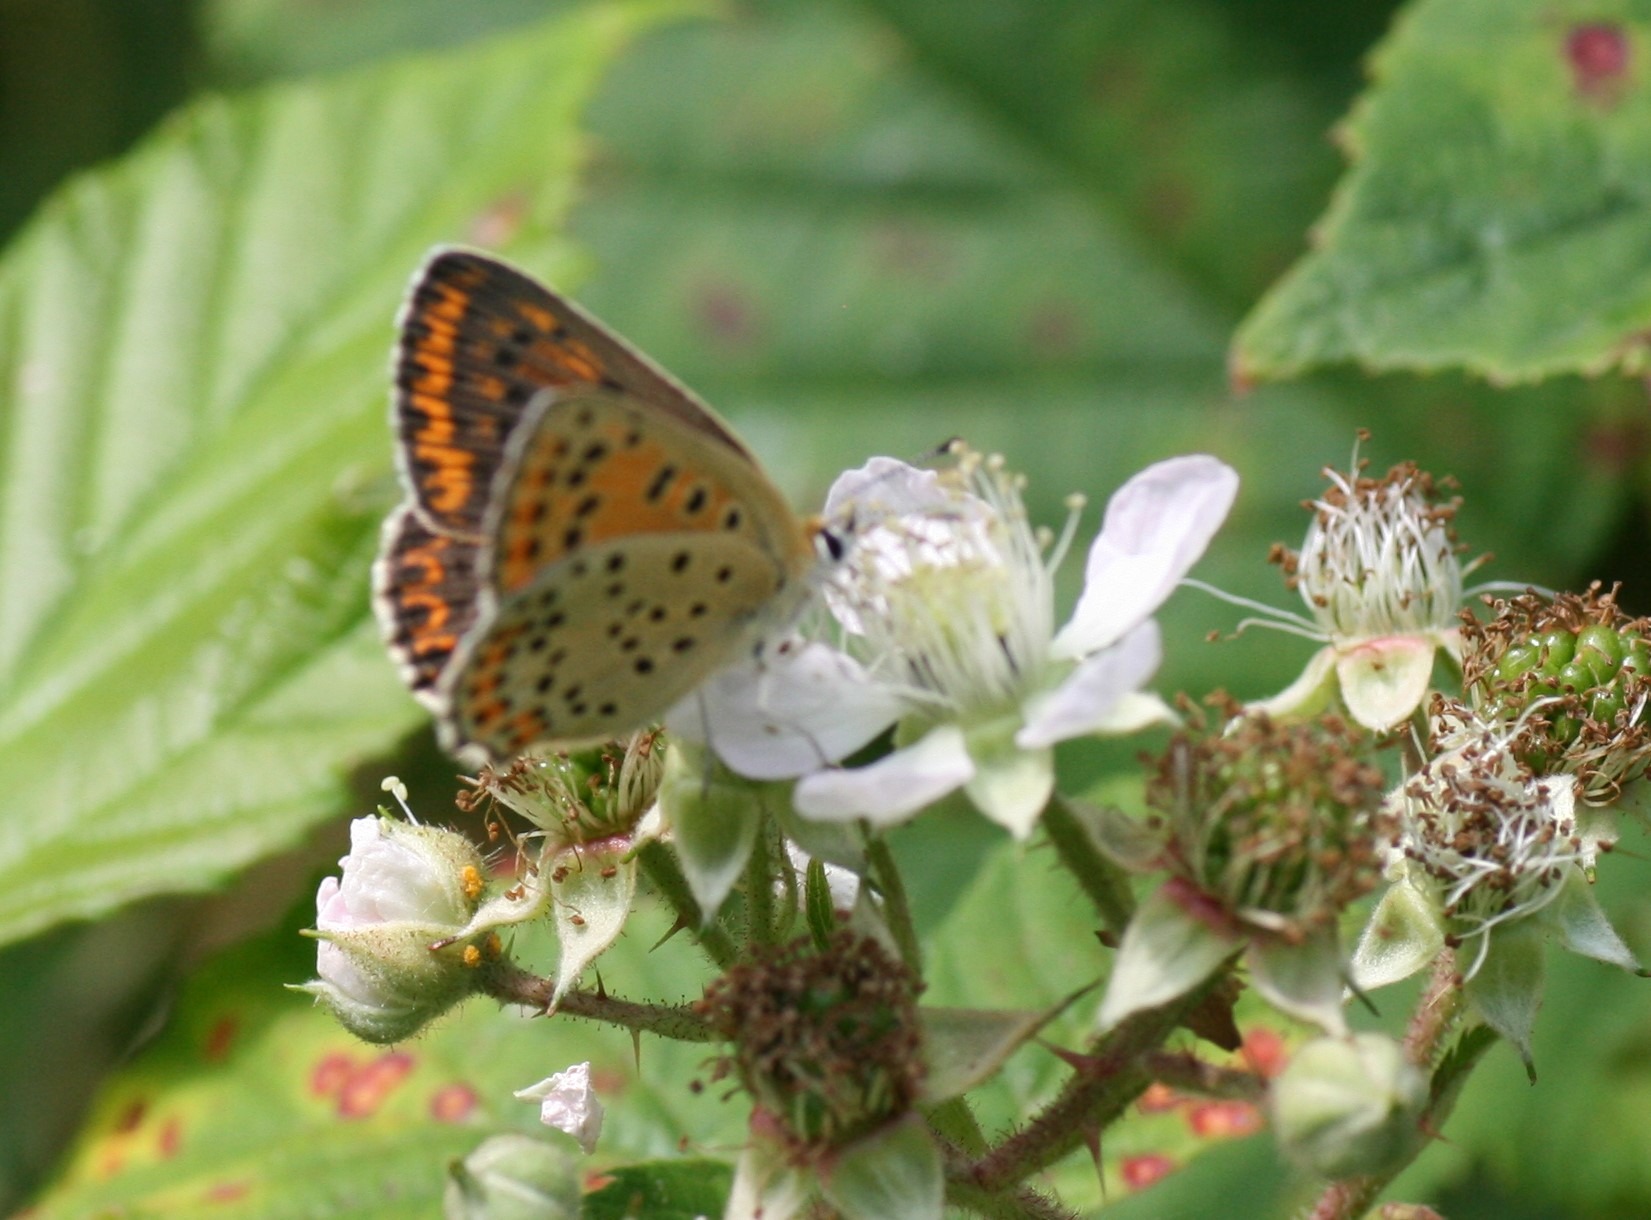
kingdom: Animalia
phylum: Arthropoda
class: Insecta
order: Lepidoptera
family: Lycaenidae
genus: Loweia
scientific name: Loweia tityrus
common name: Sort ildfugl
